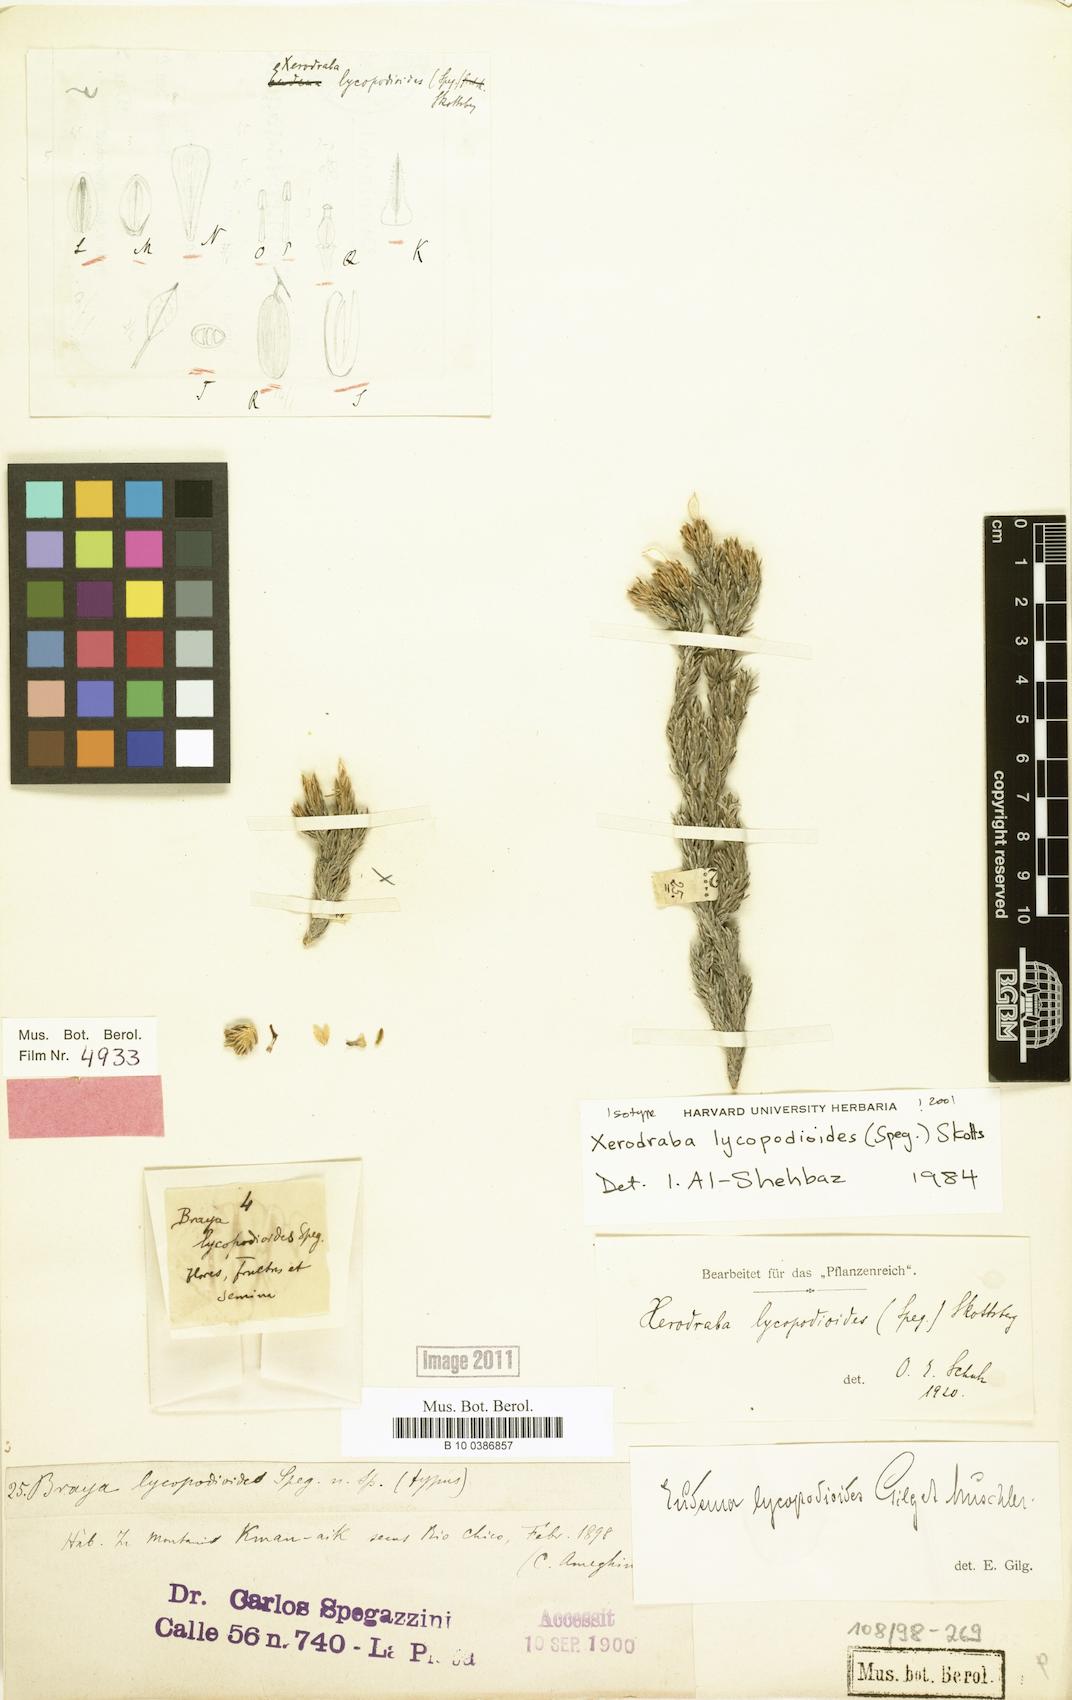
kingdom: Plantae
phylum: Tracheophyta
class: Magnoliopsida
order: Brassicales
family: Brassicaceae
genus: Xerodraba
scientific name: Xerodraba lycopodioides
